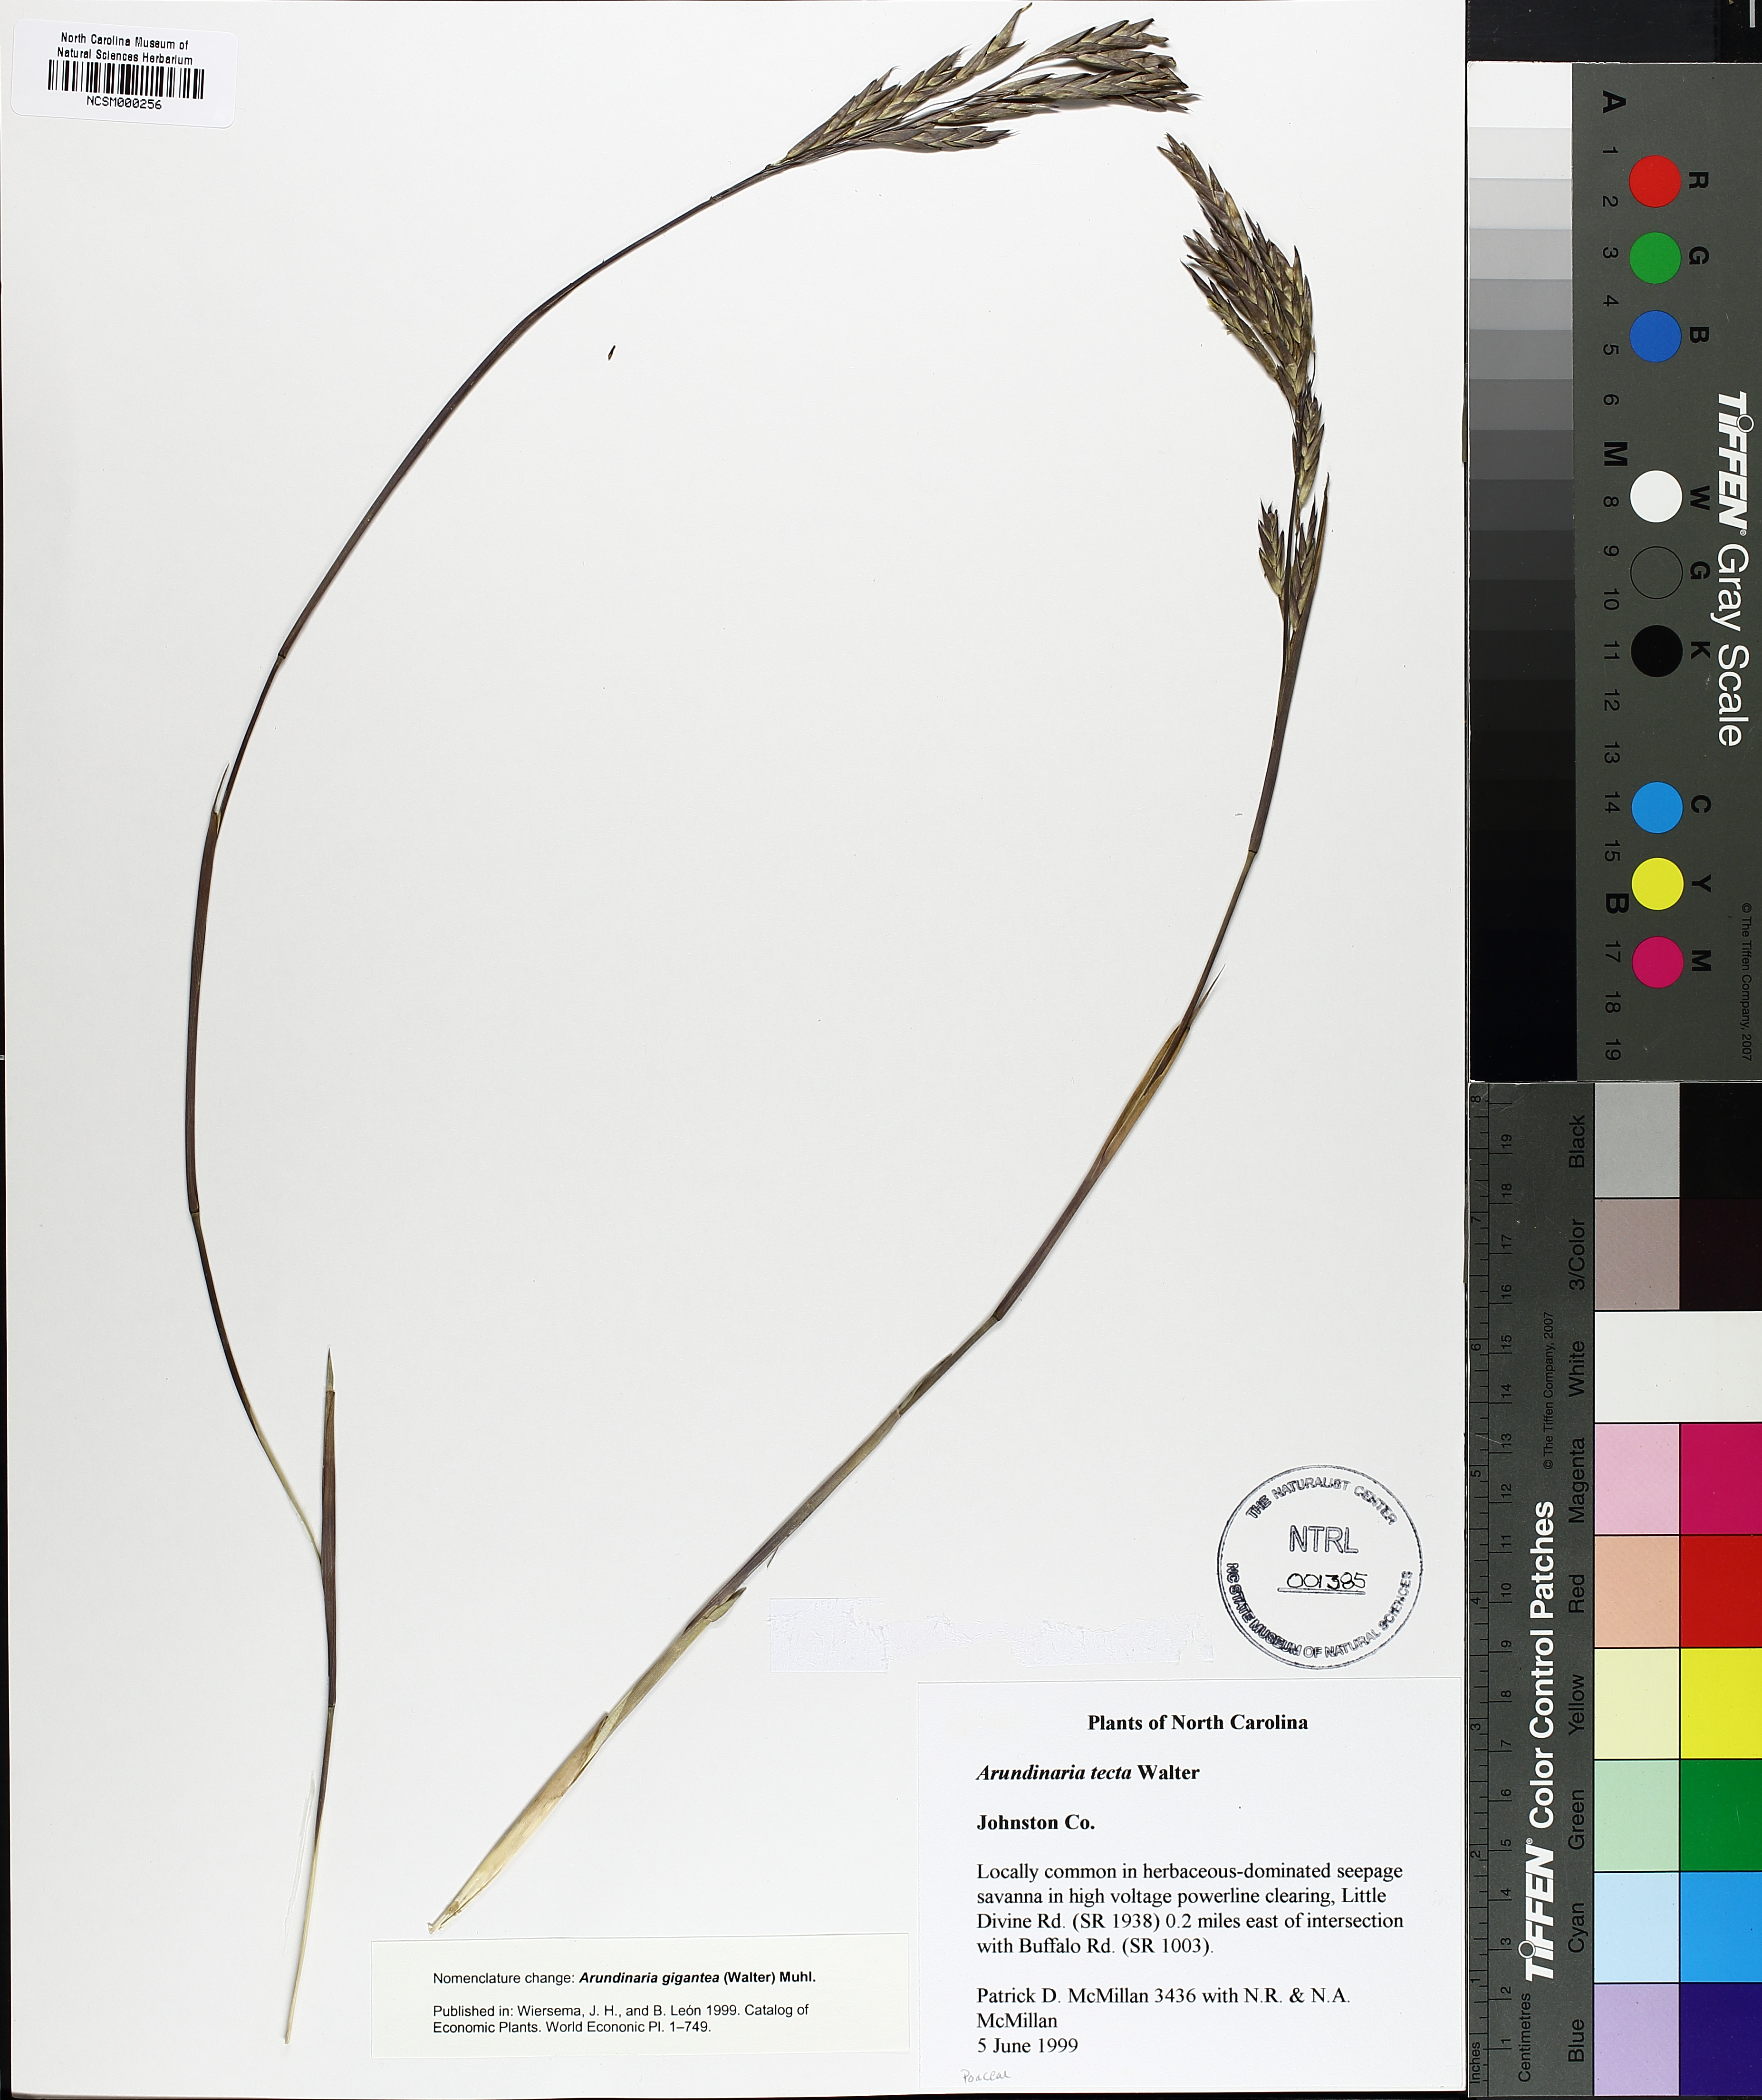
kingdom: Plantae
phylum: Tracheophyta
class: Liliopsida
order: Poales
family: Poaceae
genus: Arundinaria
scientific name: Arundinaria tecta
